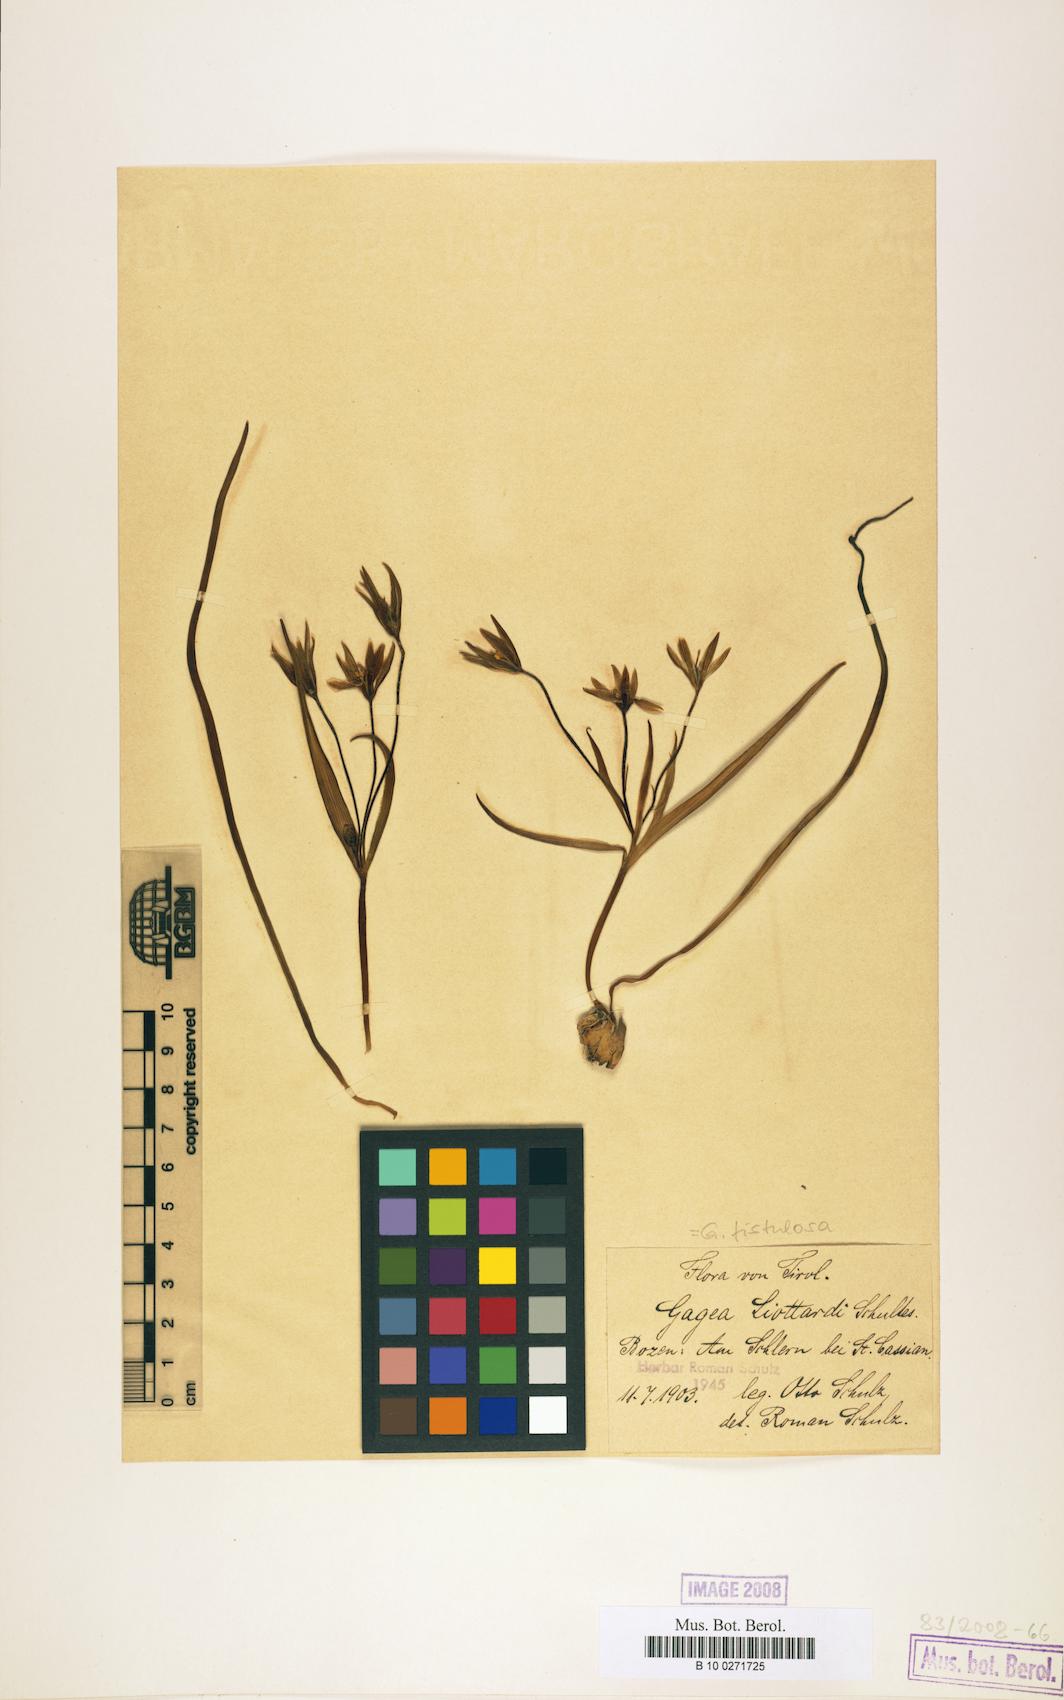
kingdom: Plantae
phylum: Tracheophyta
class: Liliopsida
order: Liliales
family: Liliaceae
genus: Gagea
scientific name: Gagea bohemica
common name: Early star-of-bethlehem
